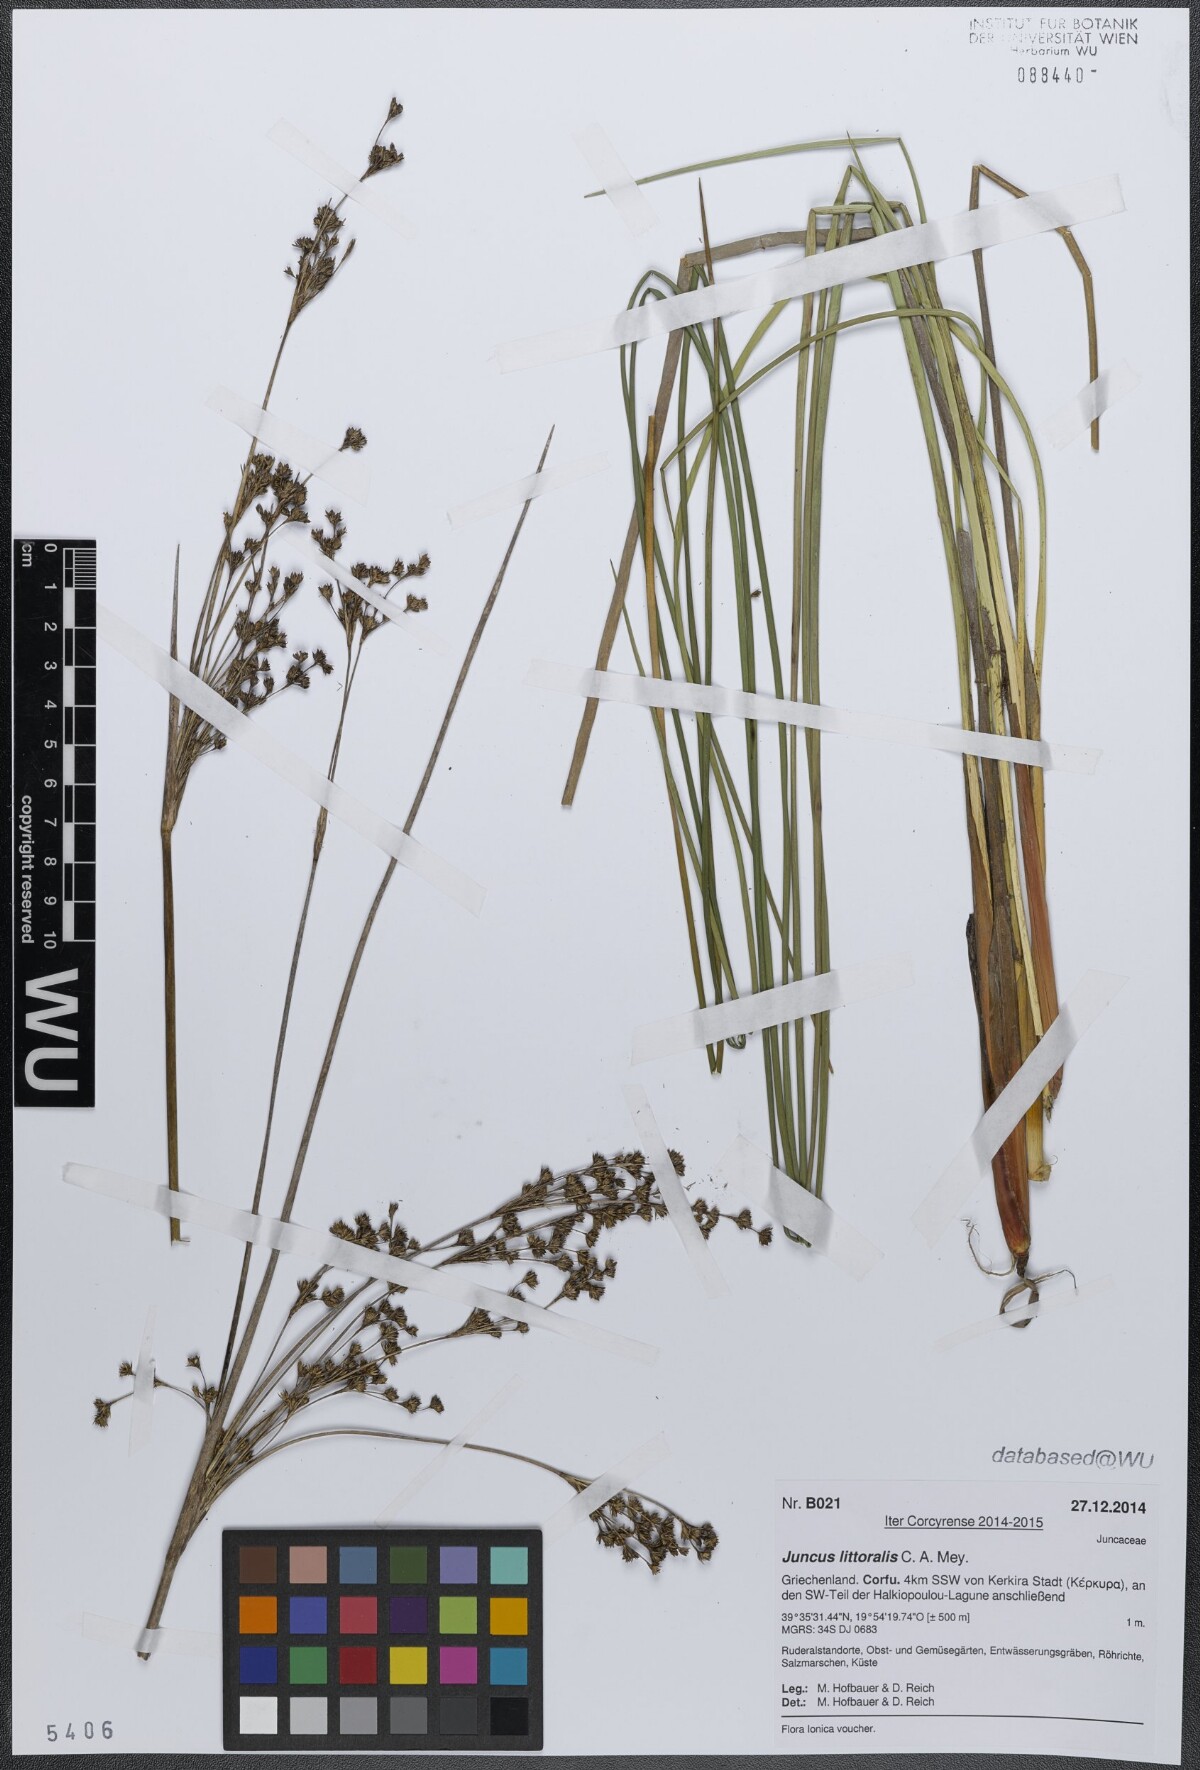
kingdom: Plantae
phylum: Tracheophyta
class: Liliopsida
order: Poales
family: Juncaceae
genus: Juncus
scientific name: Juncus littoralis
